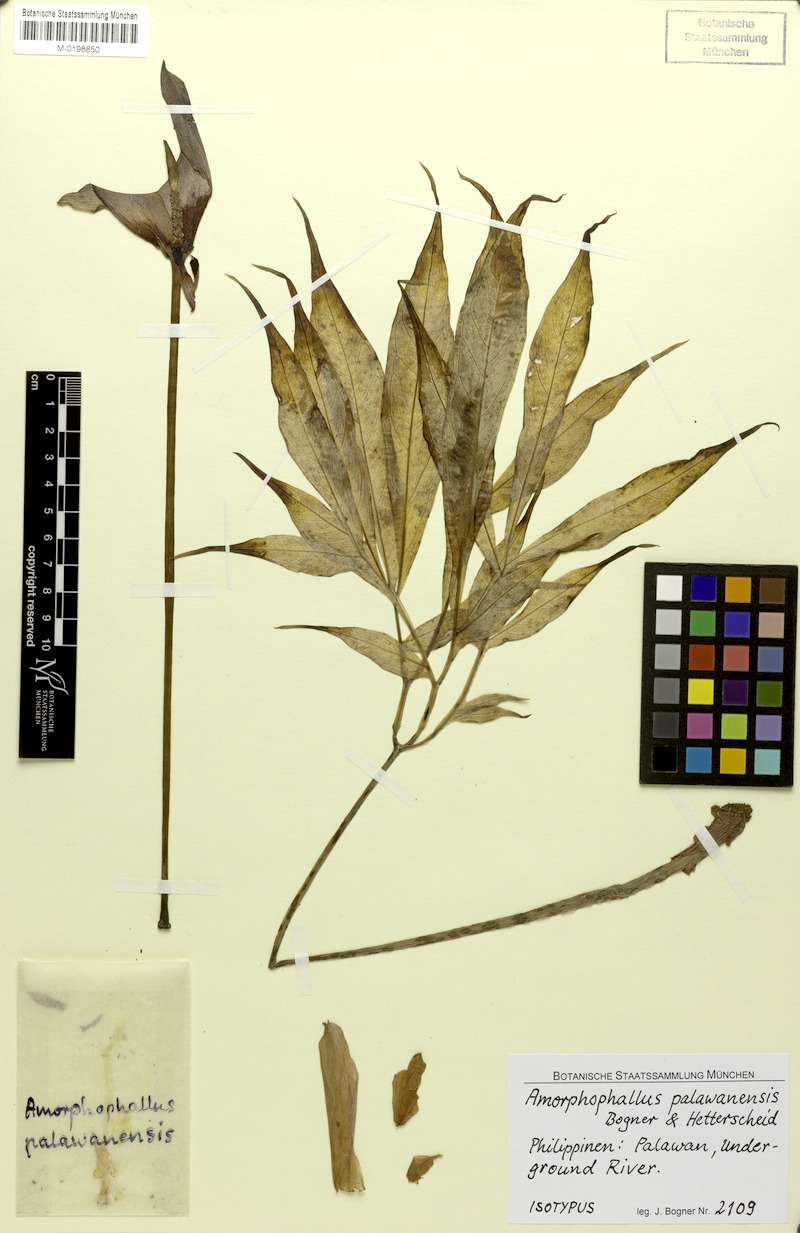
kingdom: Plantae
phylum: Tracheophyta
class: Liliopsida
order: Alismatales
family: Araceae
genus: Amorphophallus
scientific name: Amorphophallus palawanensis
